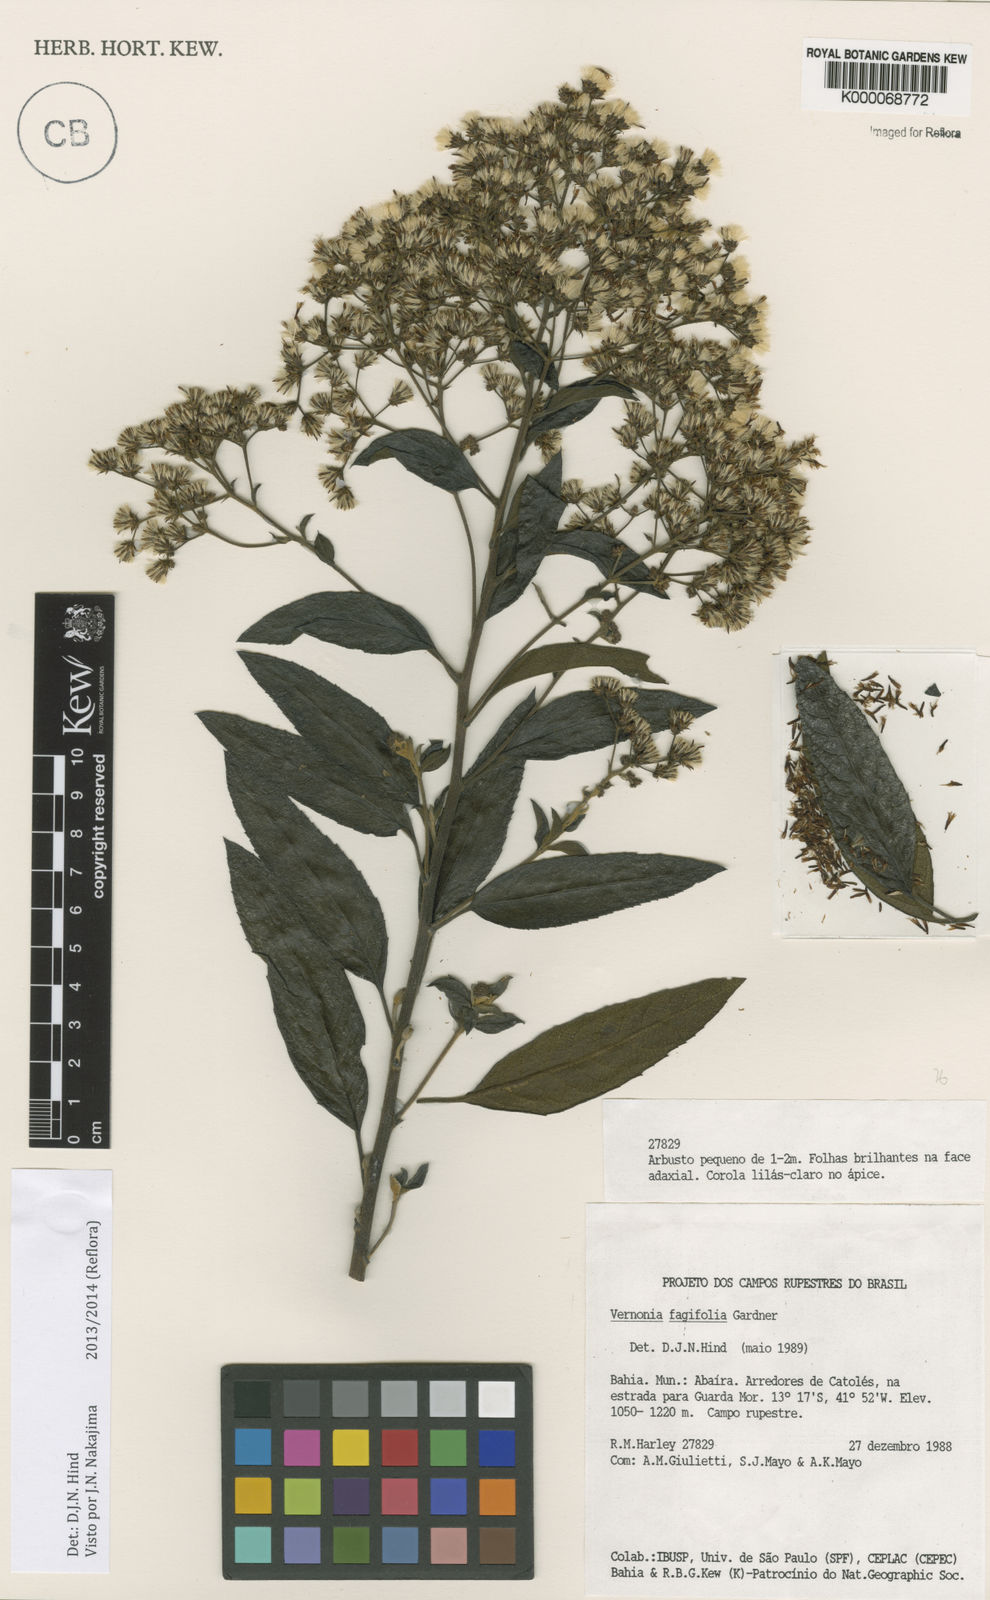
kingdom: Plantae
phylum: Tracheophyta
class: Magnoliopsida
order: Asterales
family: Asteraceae
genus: Vernonanthura
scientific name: Vernonanthura fagifolia
